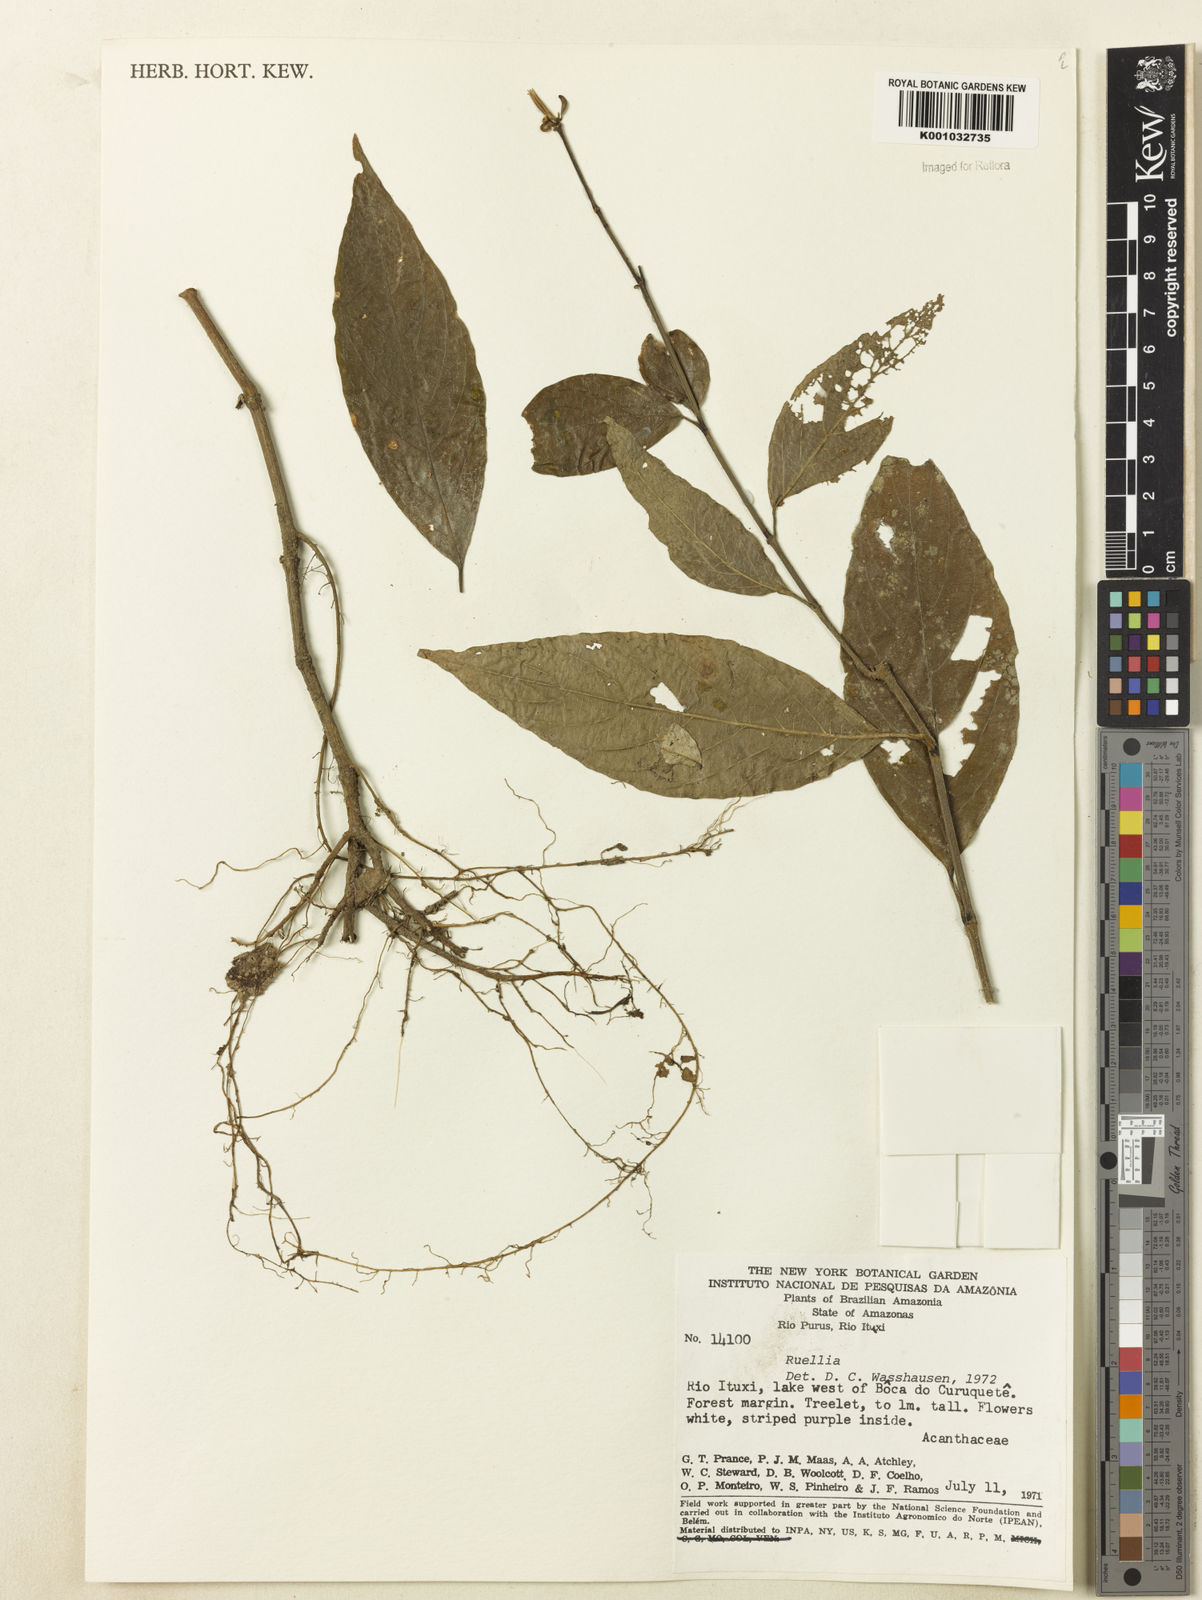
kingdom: Plantae
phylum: Tracheophyta
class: Magnoliopsida
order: Lamiales
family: Acanthaceae
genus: Ruellia
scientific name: Ruellia
